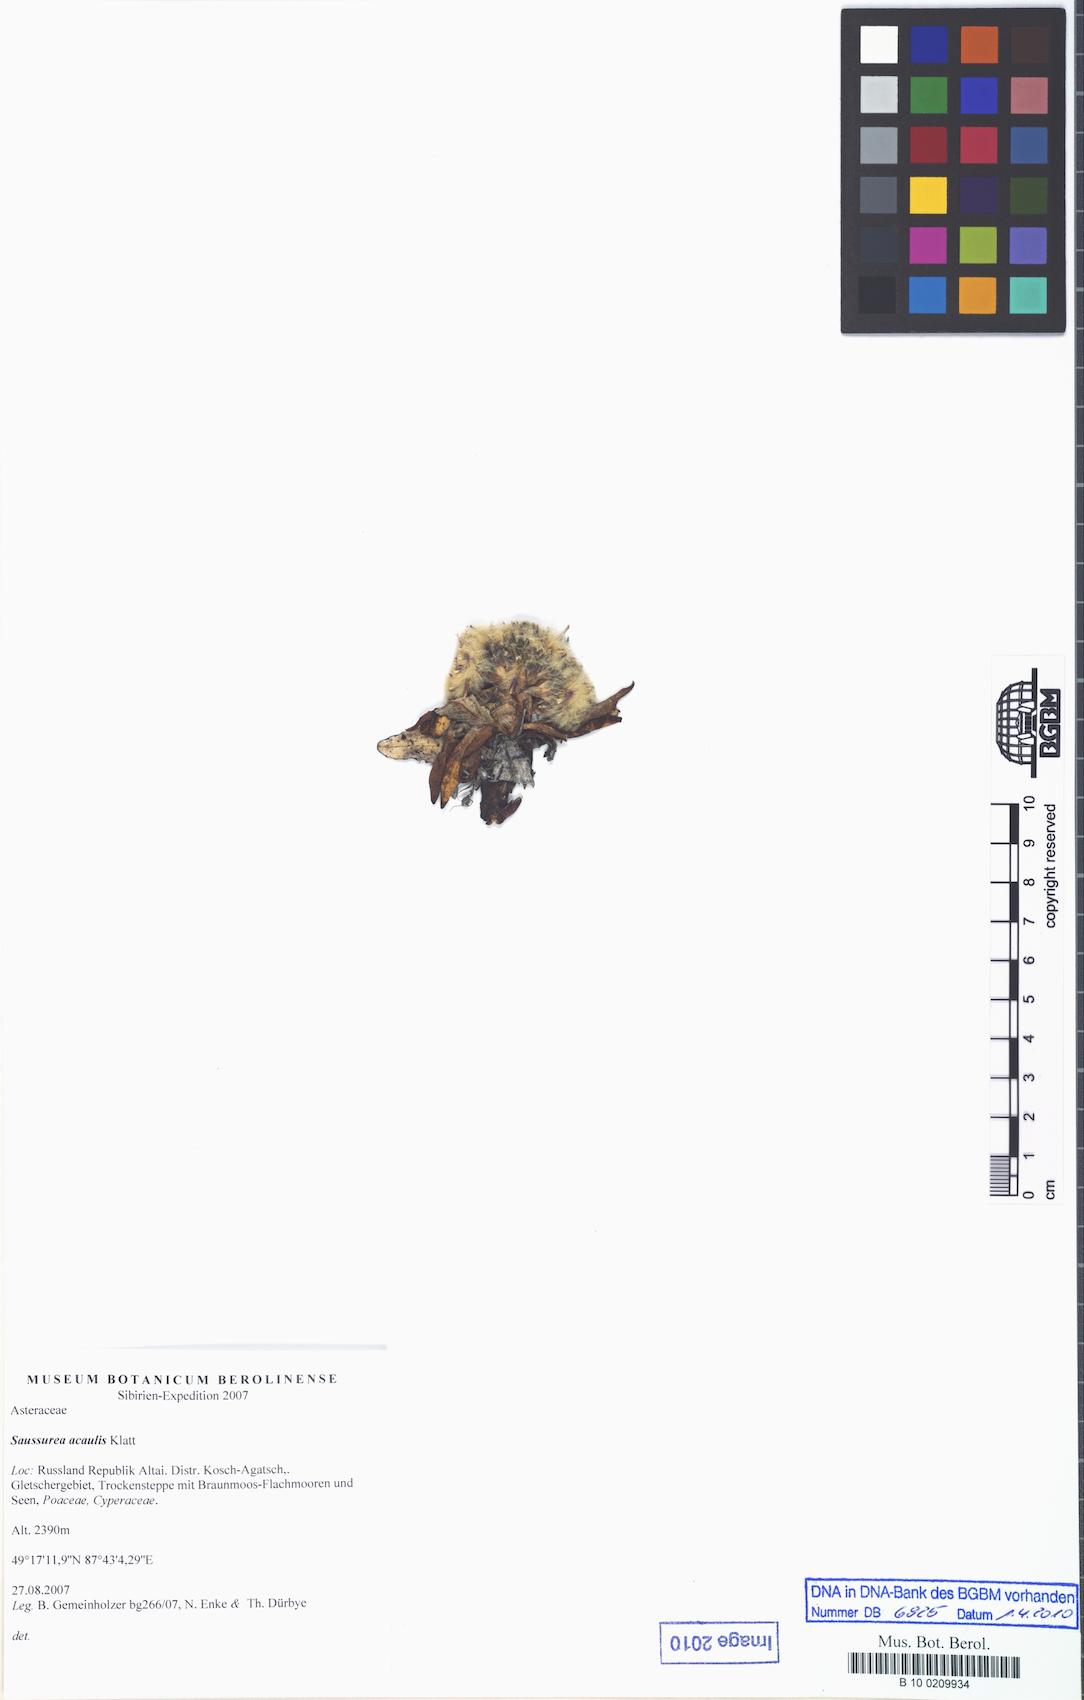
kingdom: Plantae
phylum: Tracheophyta
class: Magnoliopsida
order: Asterales
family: Asteraceae
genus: Saussurea
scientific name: Saussurea subacaulis
